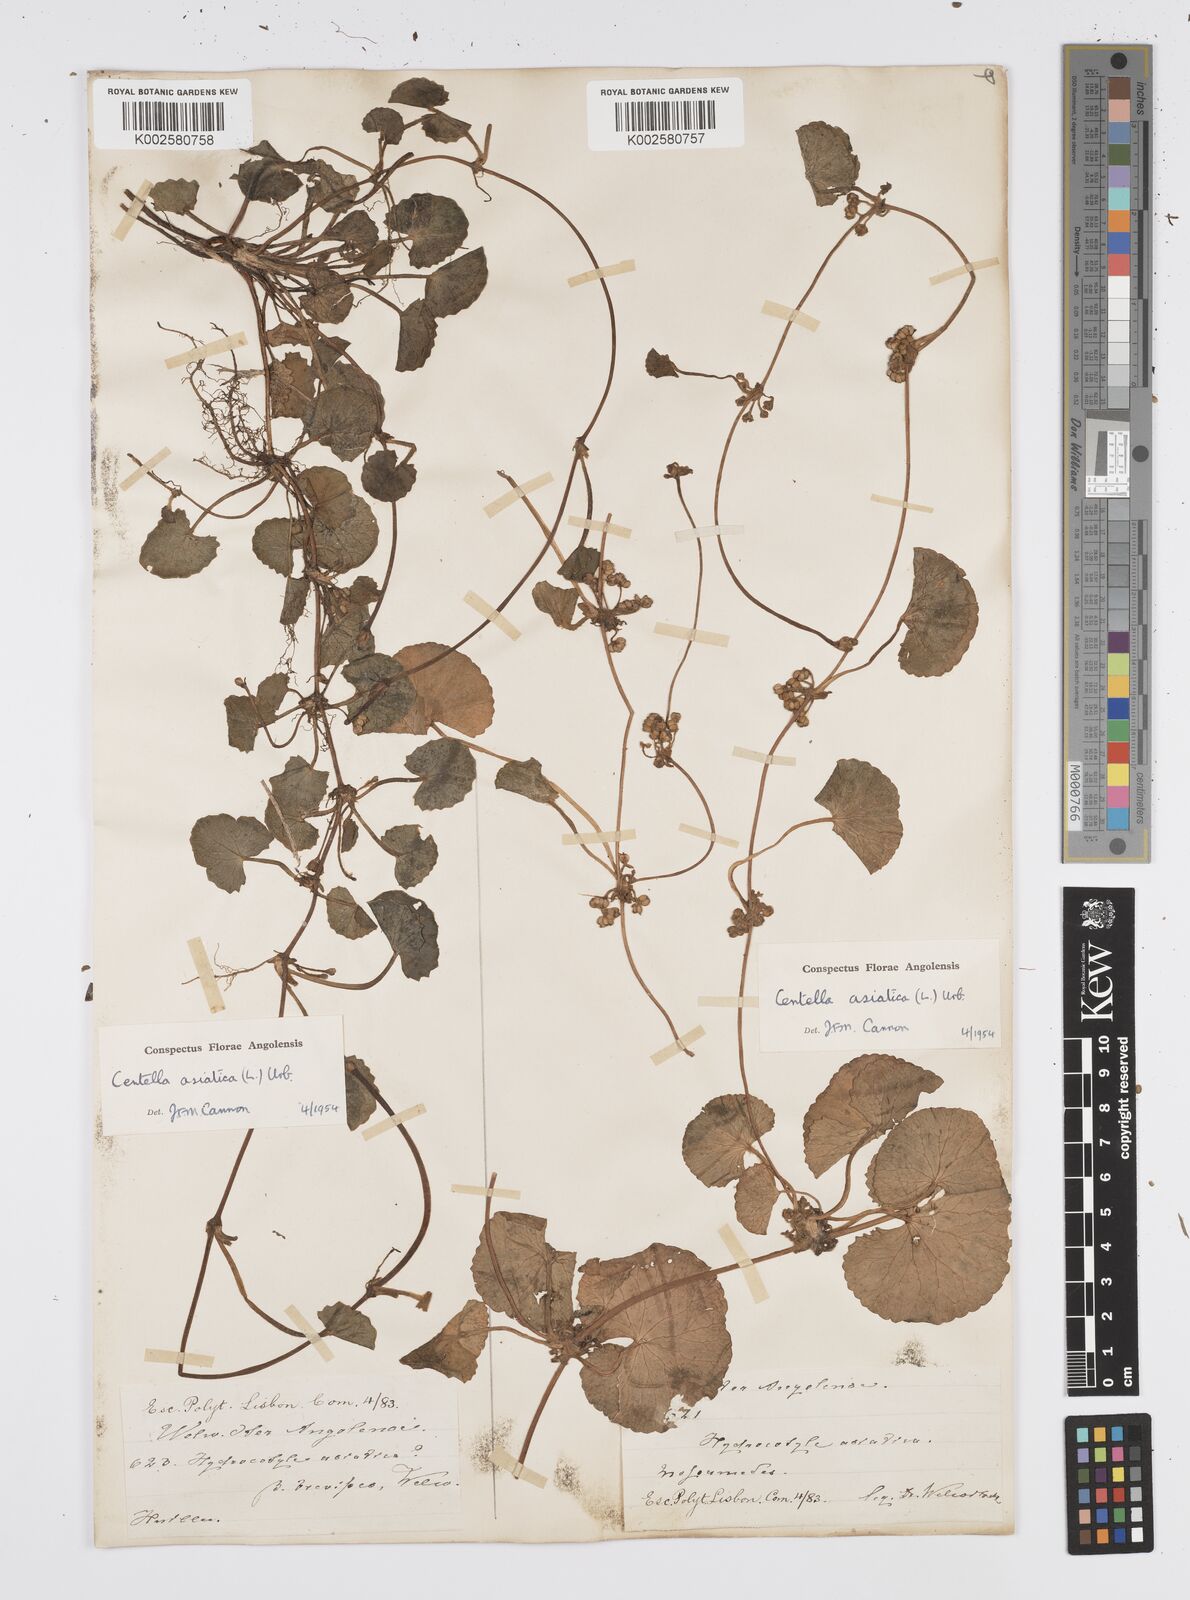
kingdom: Plantae
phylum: Tracheophyta
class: Magnoliopsida
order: Apiales
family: Apiaceae
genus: Centella
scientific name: Centella asiatica
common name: Spadeleaf
